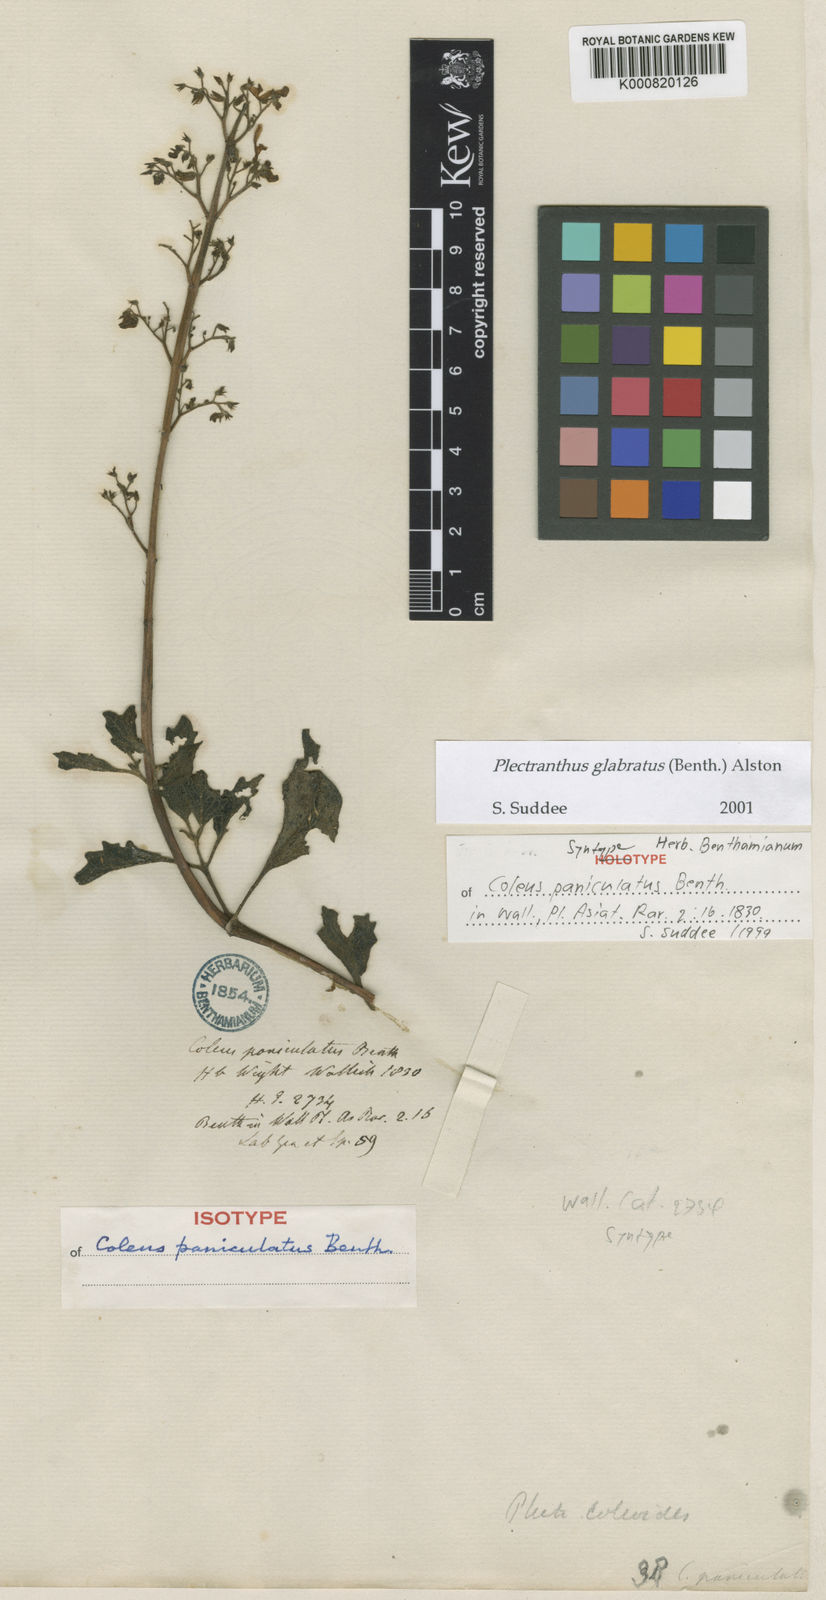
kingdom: Plantae
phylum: Tracheophyta
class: Magnoliopsida
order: Lamiales
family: Lamiaceae
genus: Coleus
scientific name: Coleus paniculatus
